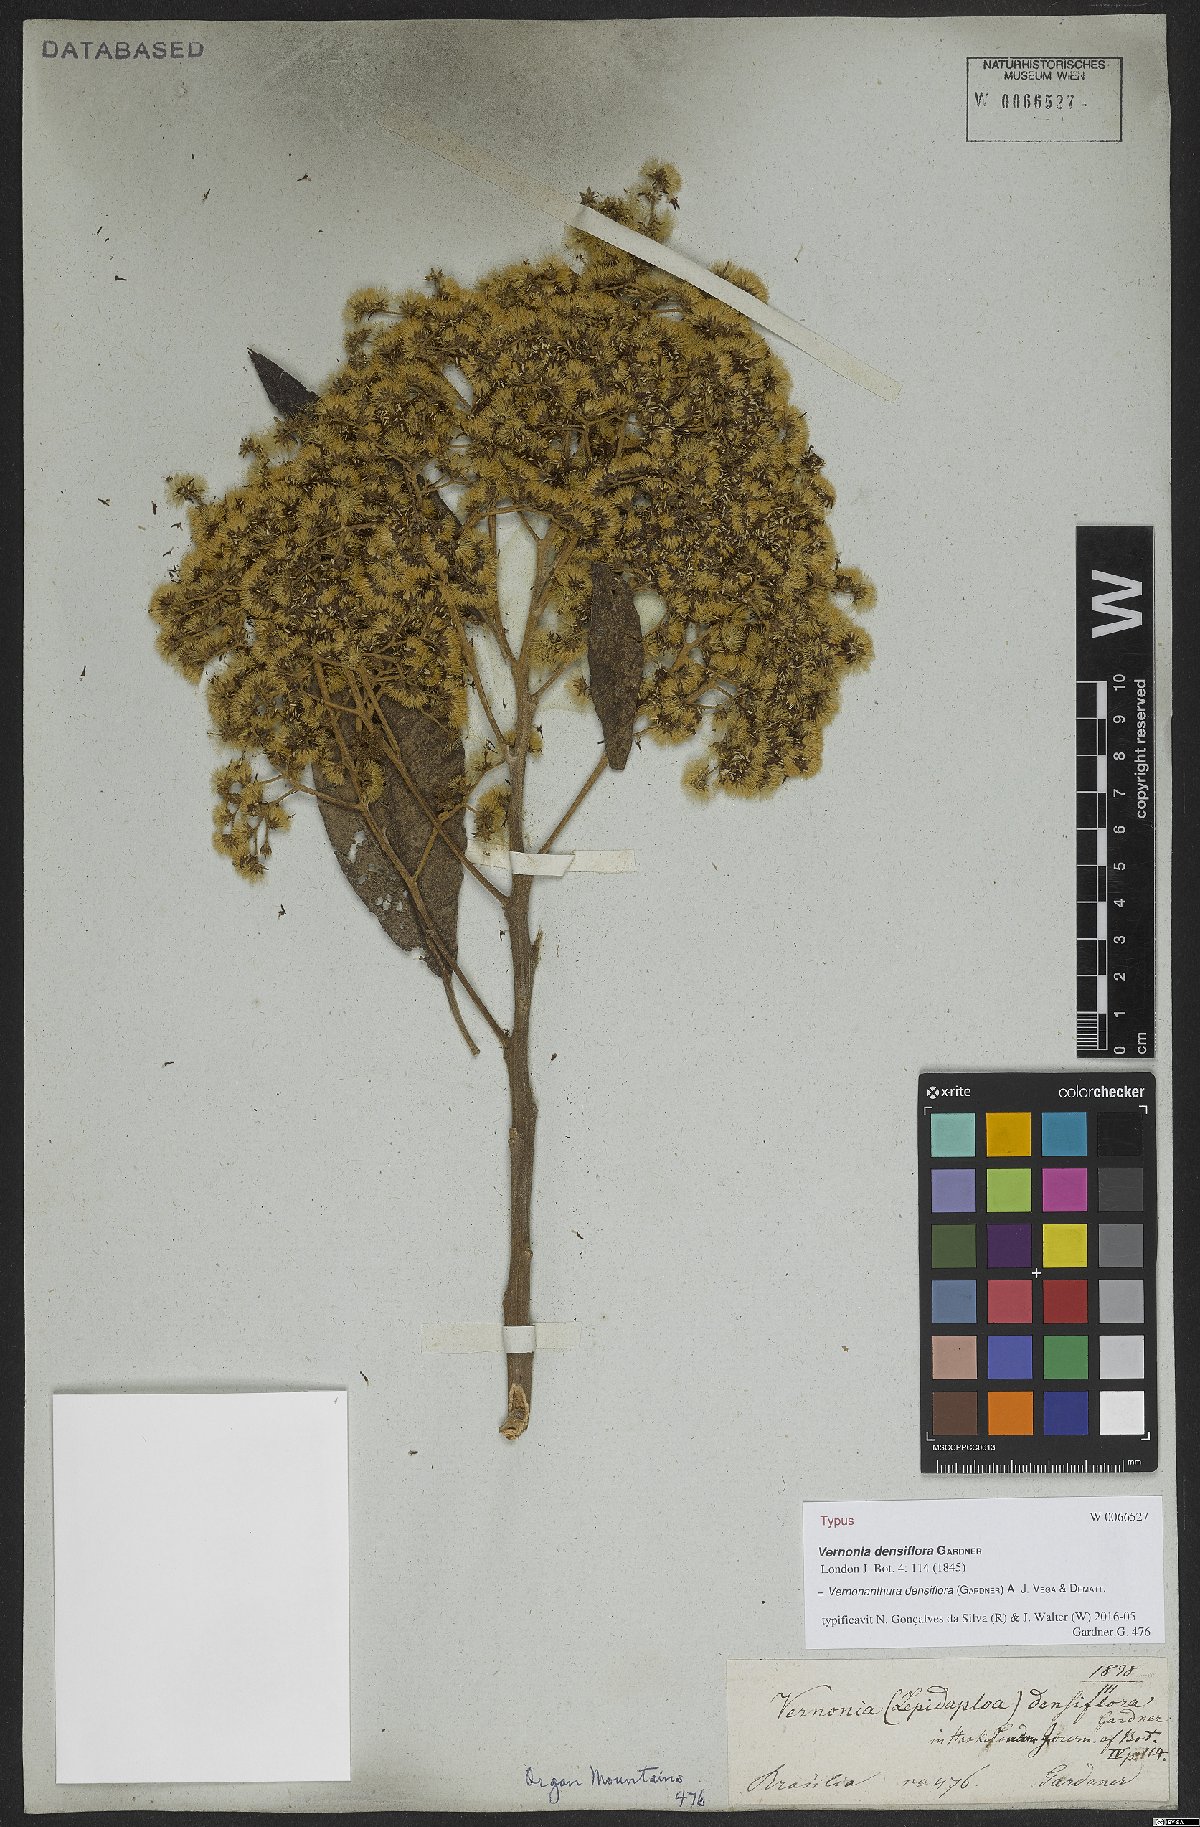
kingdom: Plantae
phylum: Tracheophyta
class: Magnoliopsida
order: Asterales
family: Asteraceae
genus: Vernonanthura
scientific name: Vernonanthura densiflora
